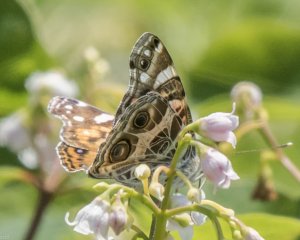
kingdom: Animalia
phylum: Arthropoda
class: Insecta
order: Lepidoptera
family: Nymphalidae
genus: Vanessa
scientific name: Vanessa virginiensis
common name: American Lady
